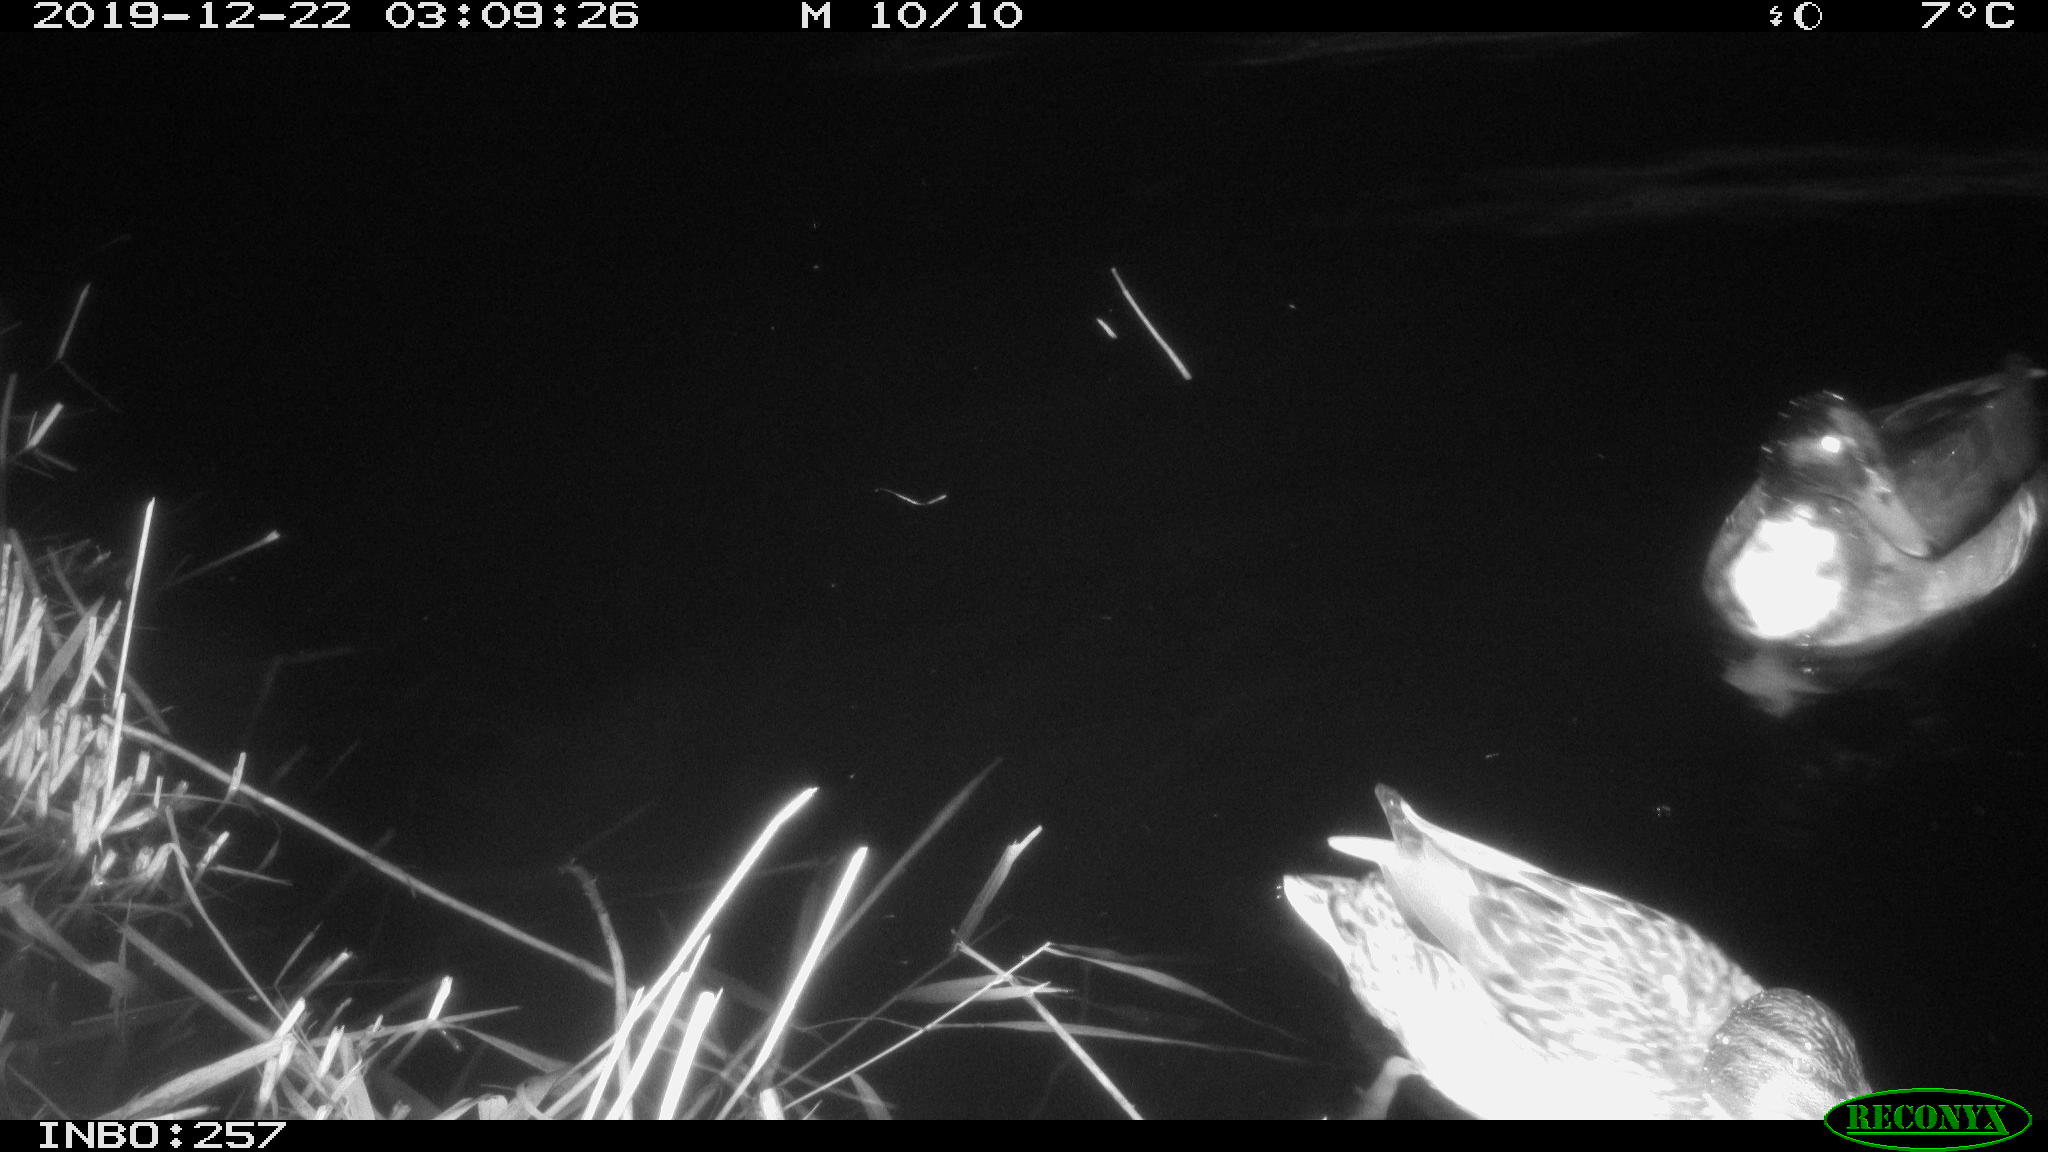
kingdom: Animalia
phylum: Chordata
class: Aves
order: Anseriformes
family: Anatidae
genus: Anas
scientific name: Anas platyrhynchos
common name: Mallard
